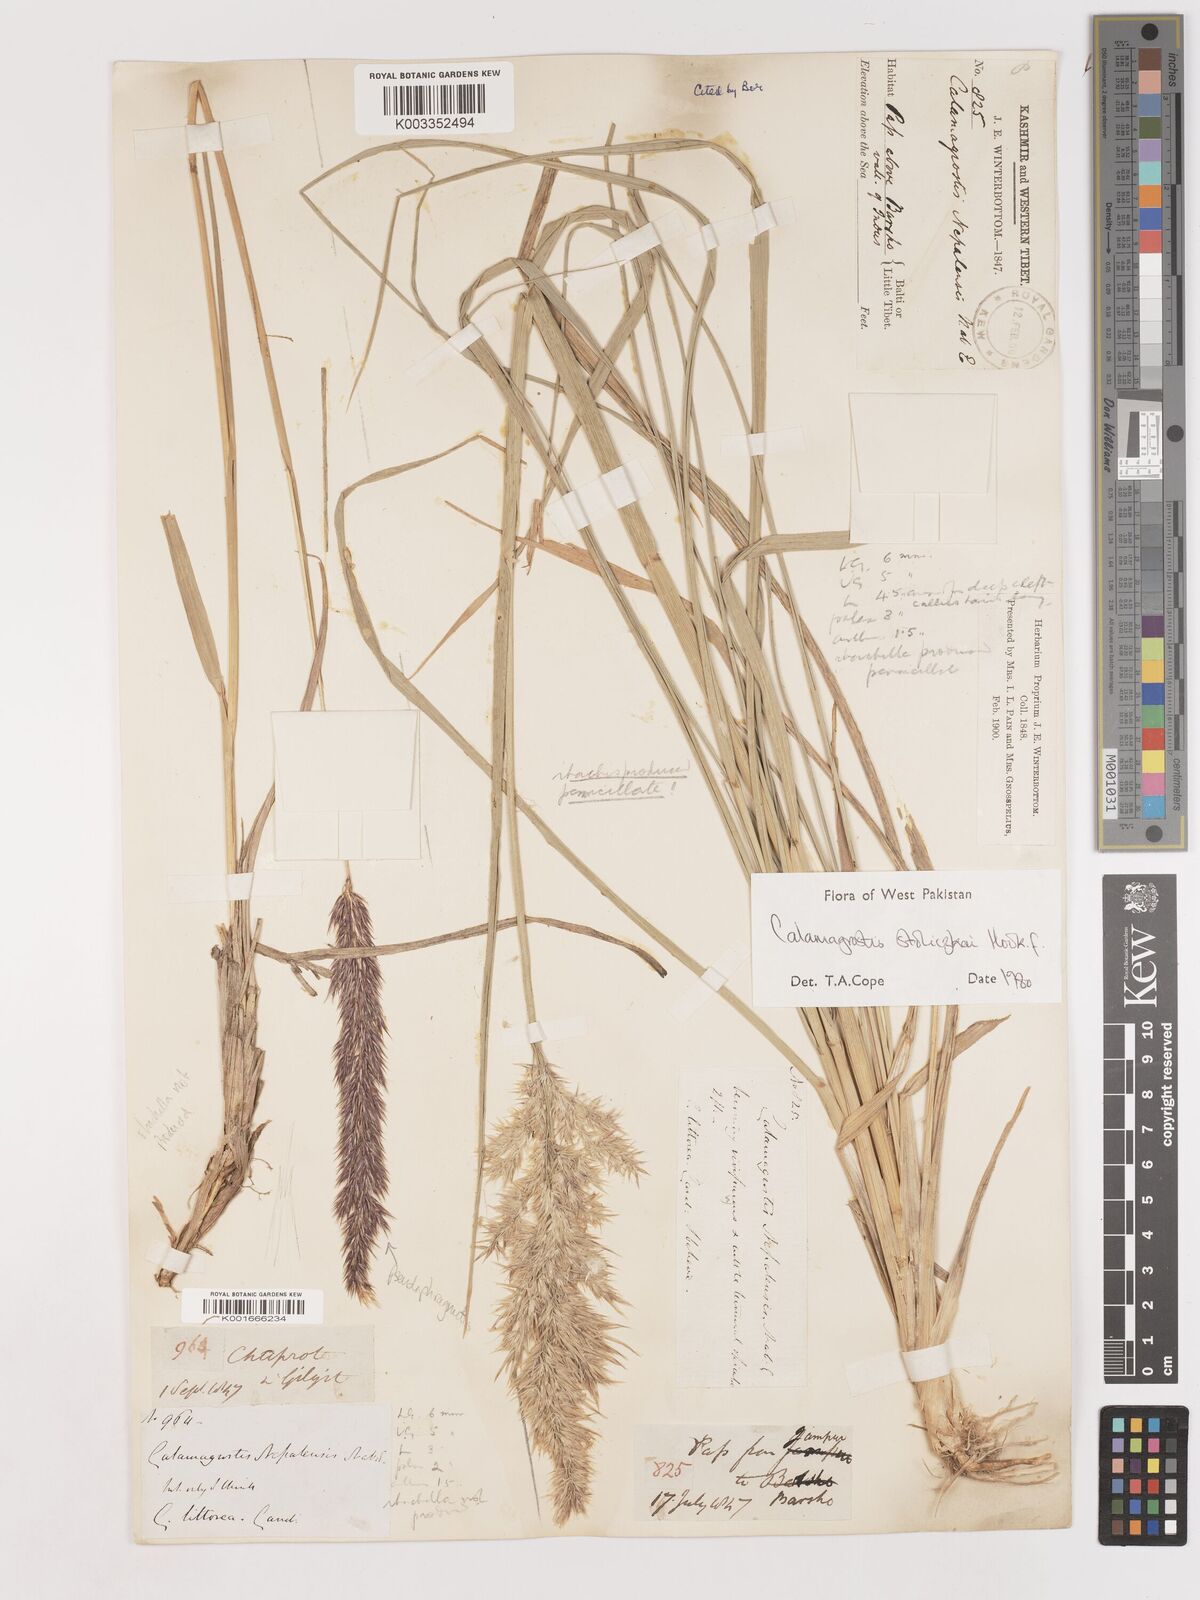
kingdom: Plantae
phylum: Tracheophyta
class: Liliopsida
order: Poales
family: Poaceae
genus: Calamagrostis
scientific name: Calamagrostis stolizkae
